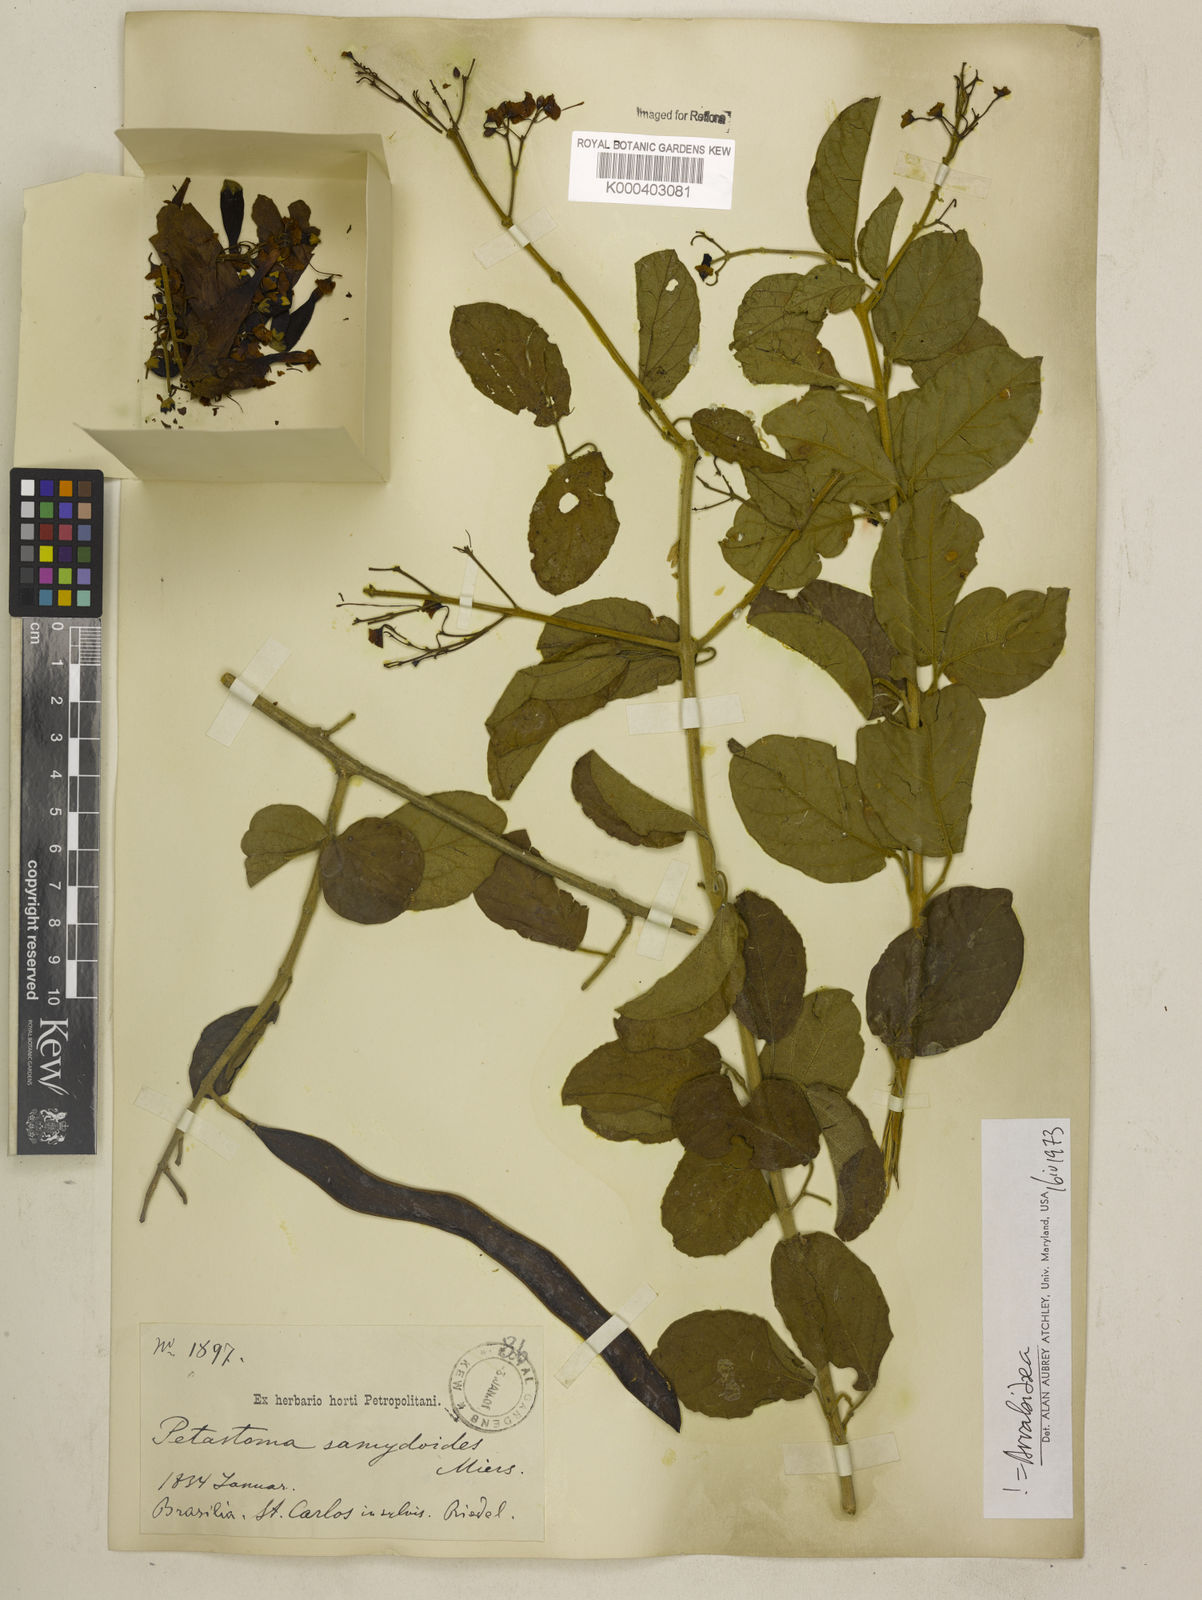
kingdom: Plantae
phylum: Tracheophyta
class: Magnoliopsida
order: Lamiales
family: Bignoniaceae
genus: Fridericia
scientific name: Fridericia samydoides
